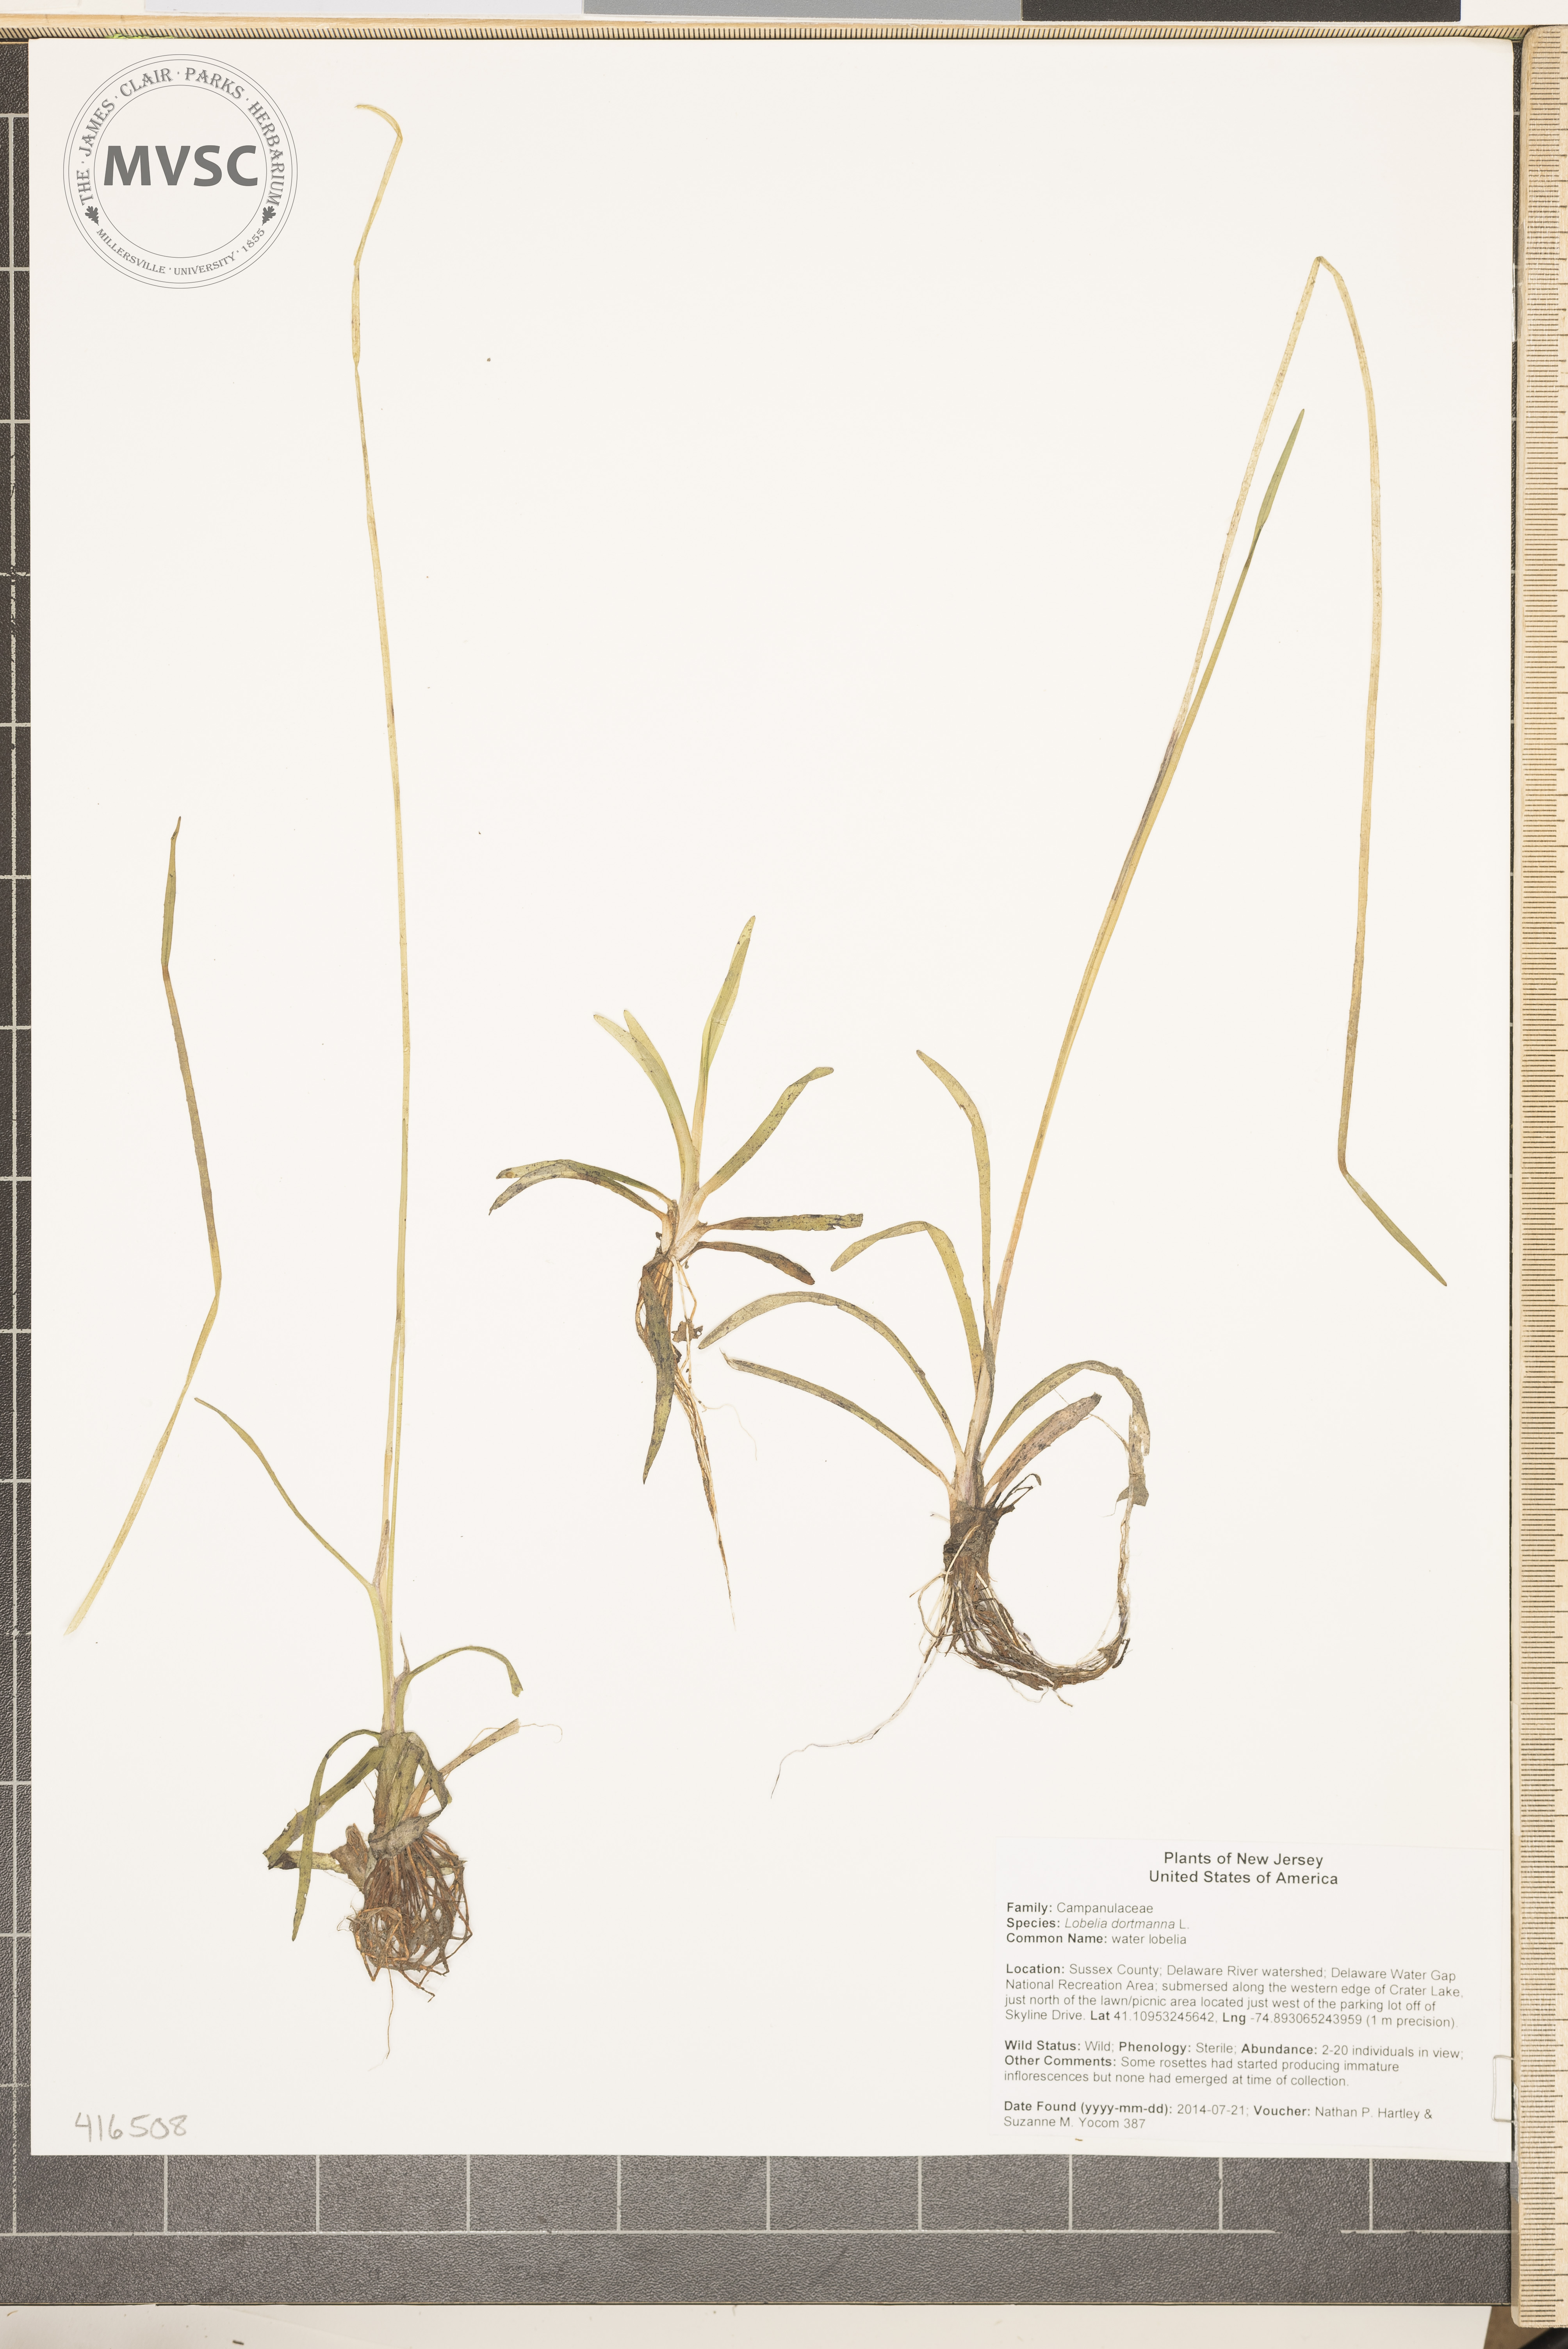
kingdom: Plantae
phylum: Tracheophyta
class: Magnoliopsida
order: Asterales
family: Campanulaceae
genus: Lobelia
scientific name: Lobelia dortmanna
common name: water lobelia
